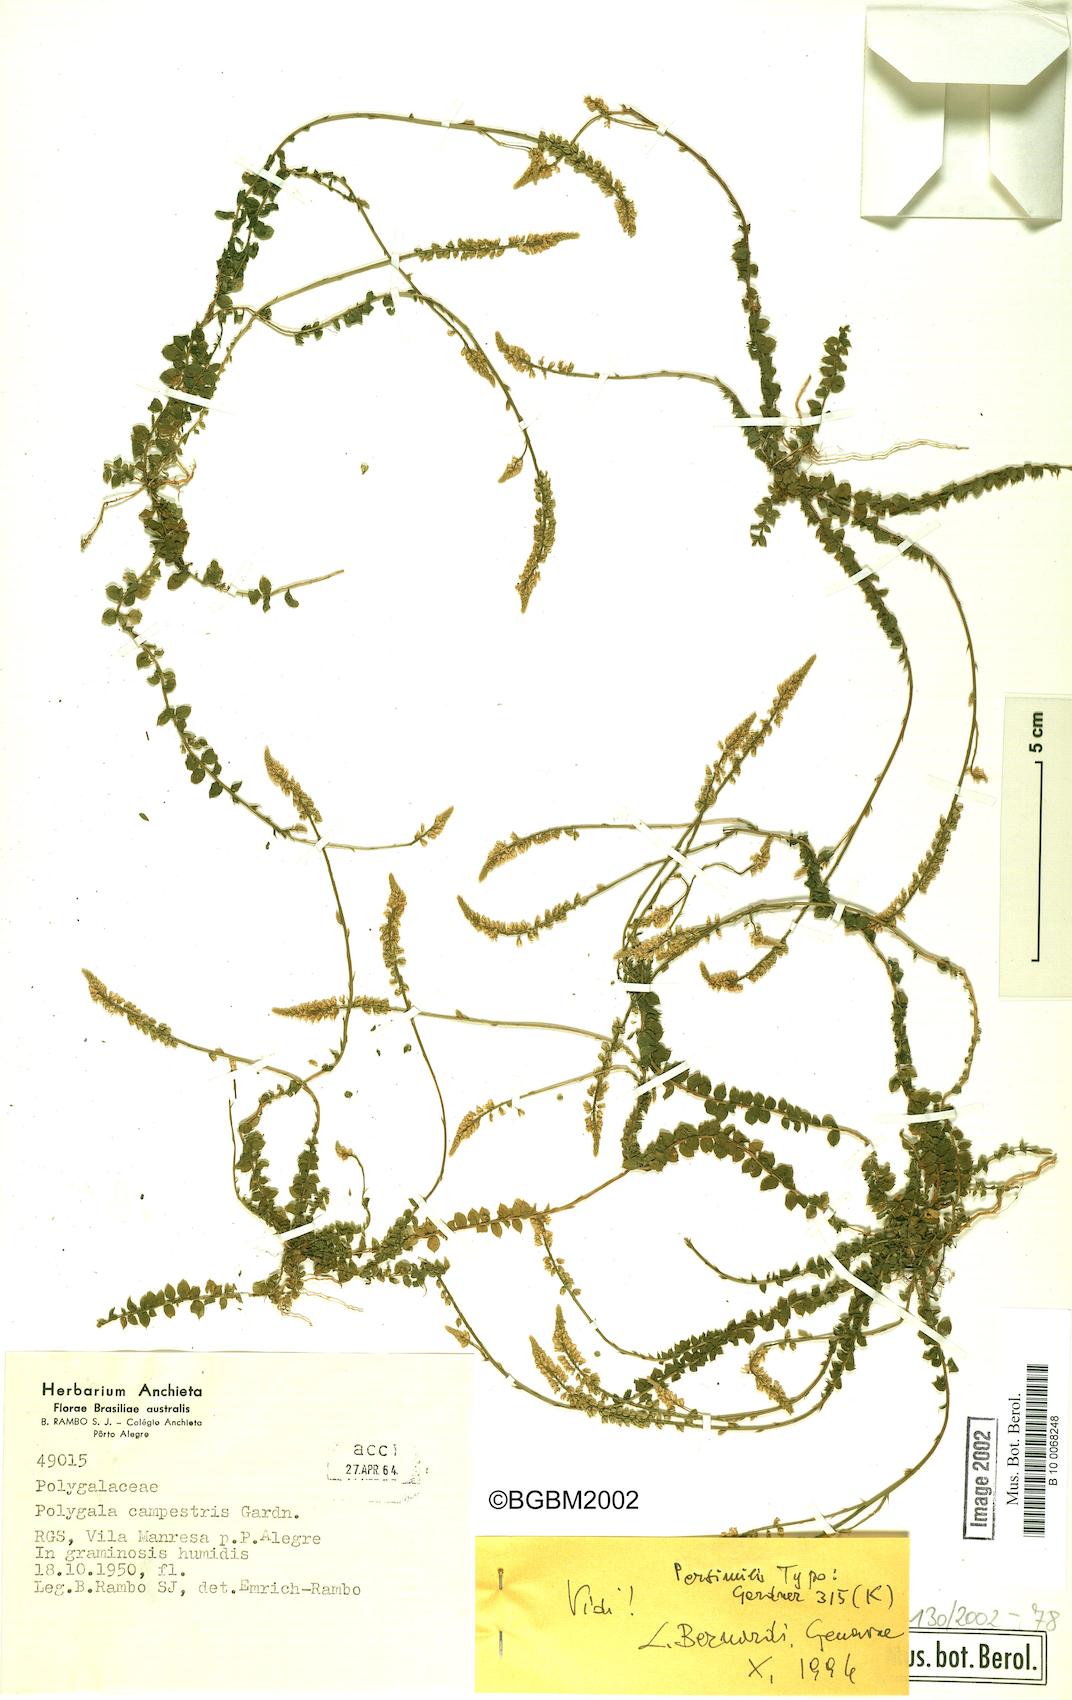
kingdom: Plantae
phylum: Tracheophyta
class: Magnoliopsida
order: Fabales
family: Polygalaceae
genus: Polygala
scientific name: Polygala campestris
